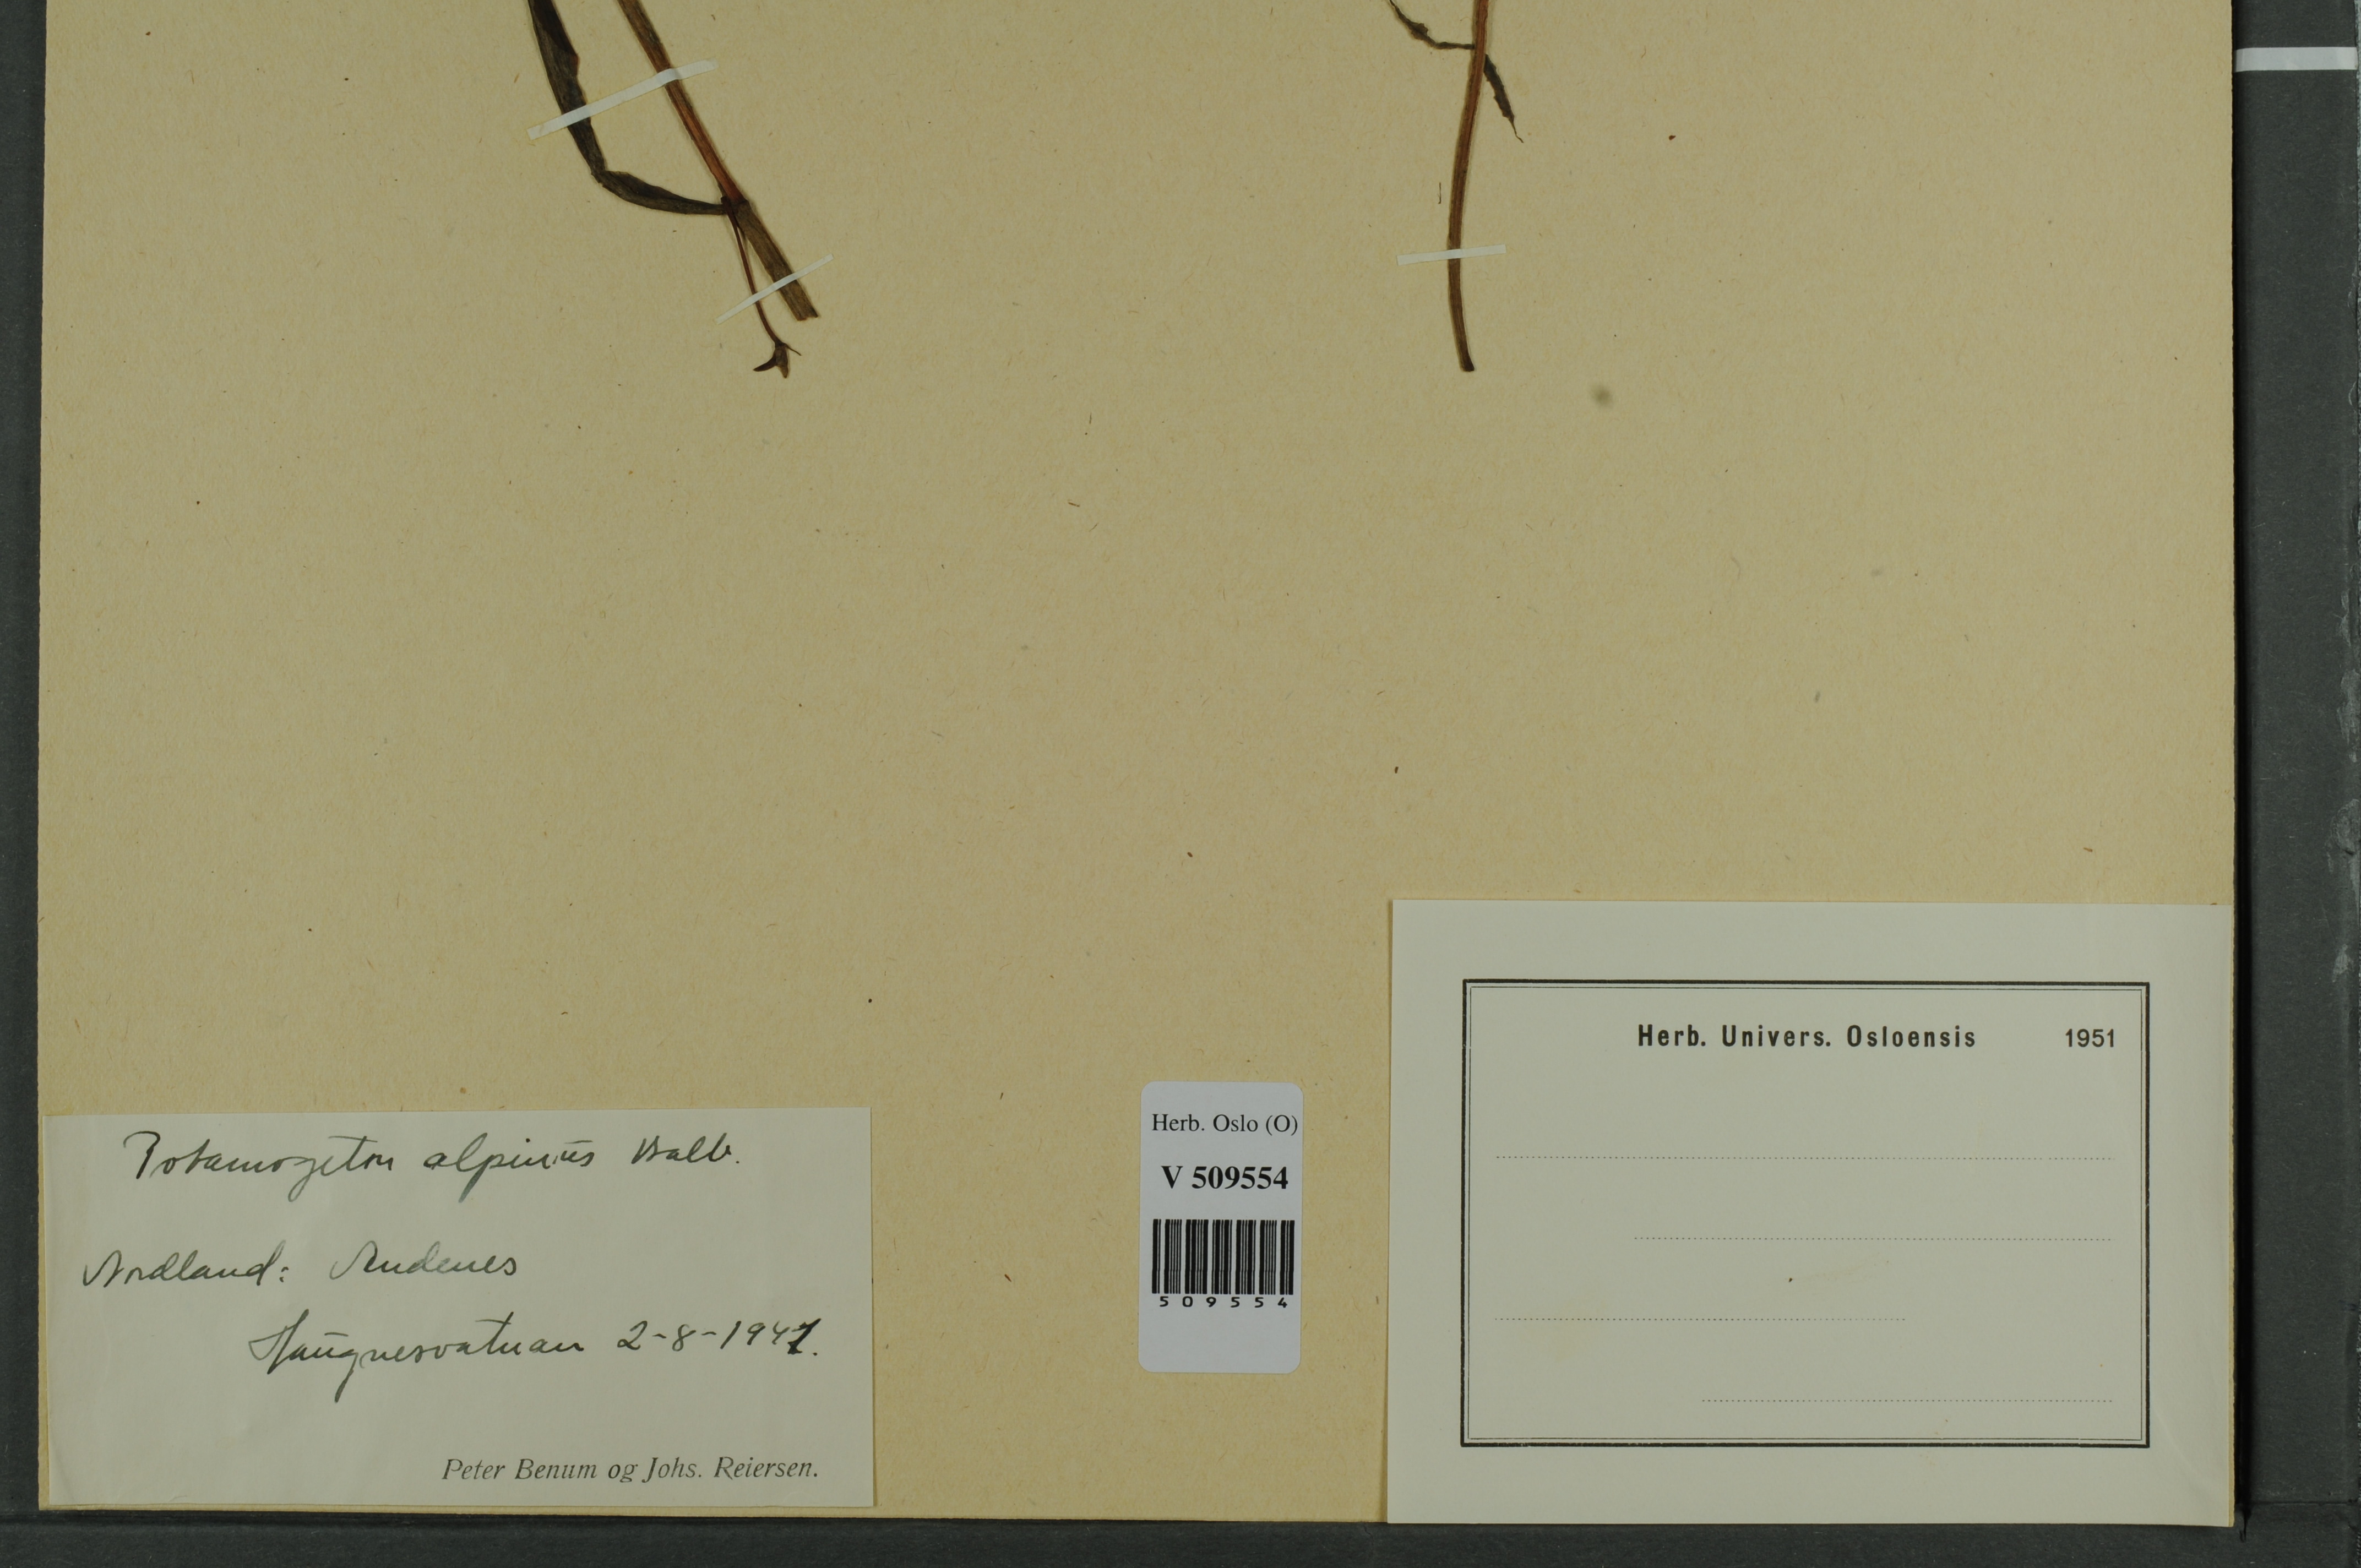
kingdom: Plantae
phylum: Tracheophyta
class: Liliopsida
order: Alismatales
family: Potamogetonaceae
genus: Potamogeton
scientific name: Potamogeton alpinus
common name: Red pondweed
